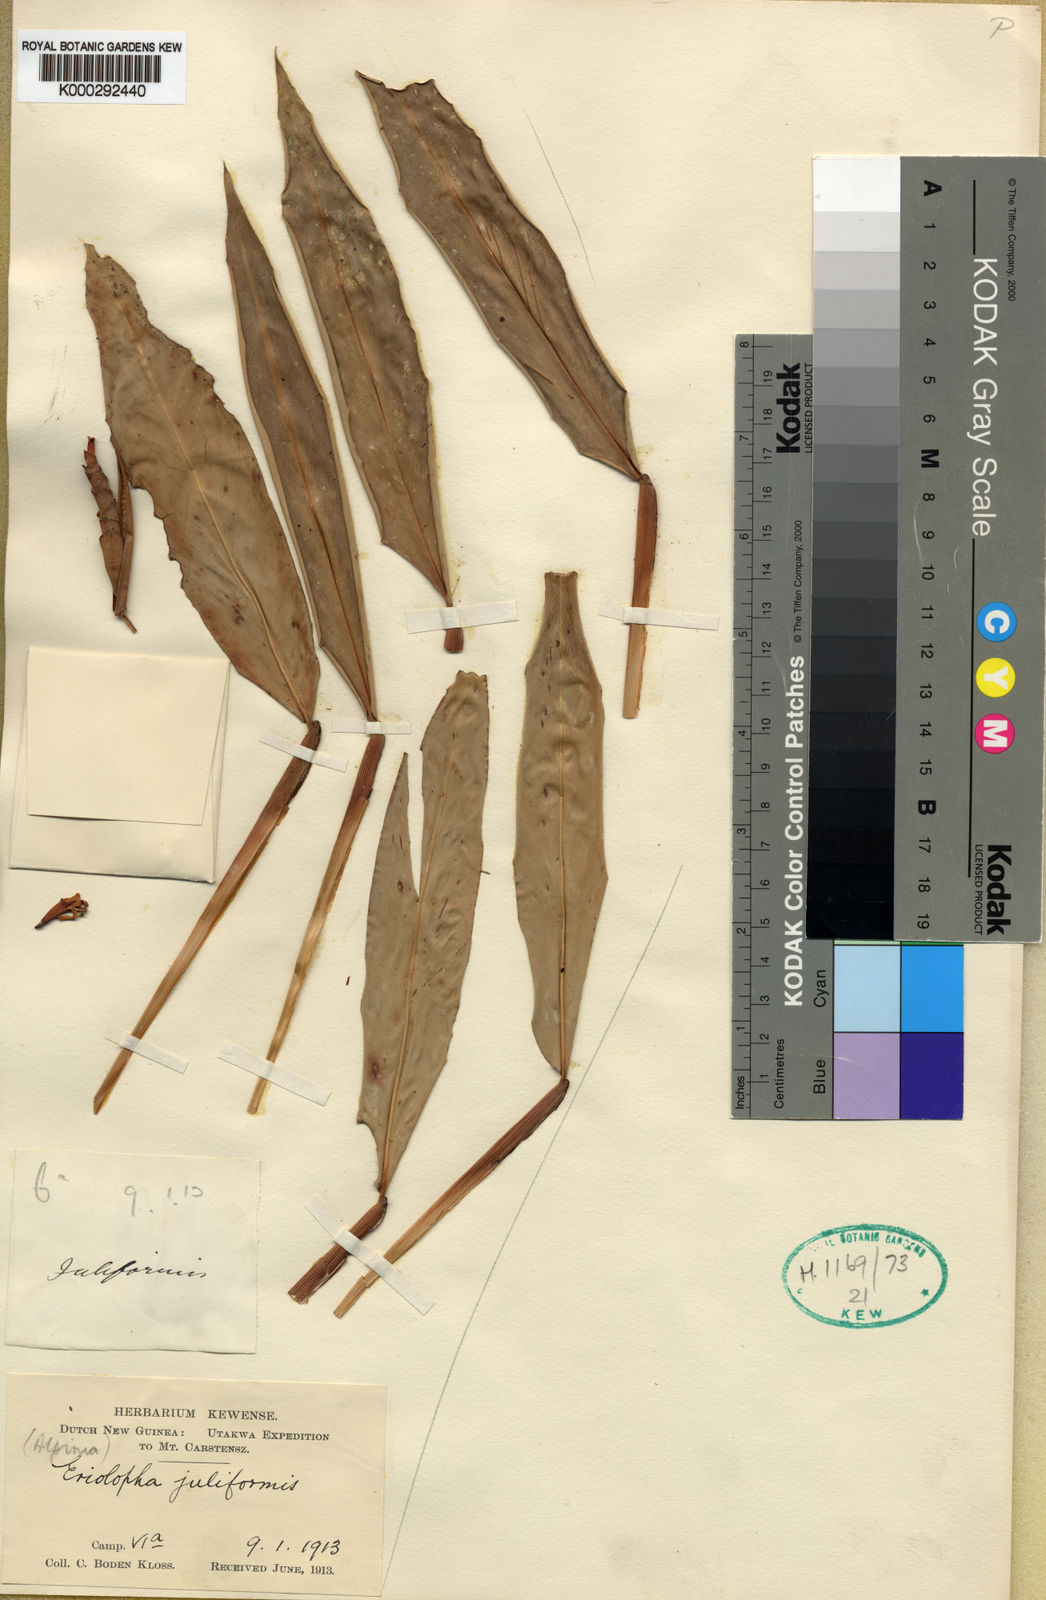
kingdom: Plantae
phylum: Tracheophyta
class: Liliopsida
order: Zingiberales
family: Zingiberaceae
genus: Alpinia
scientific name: Alpinia juliformis
